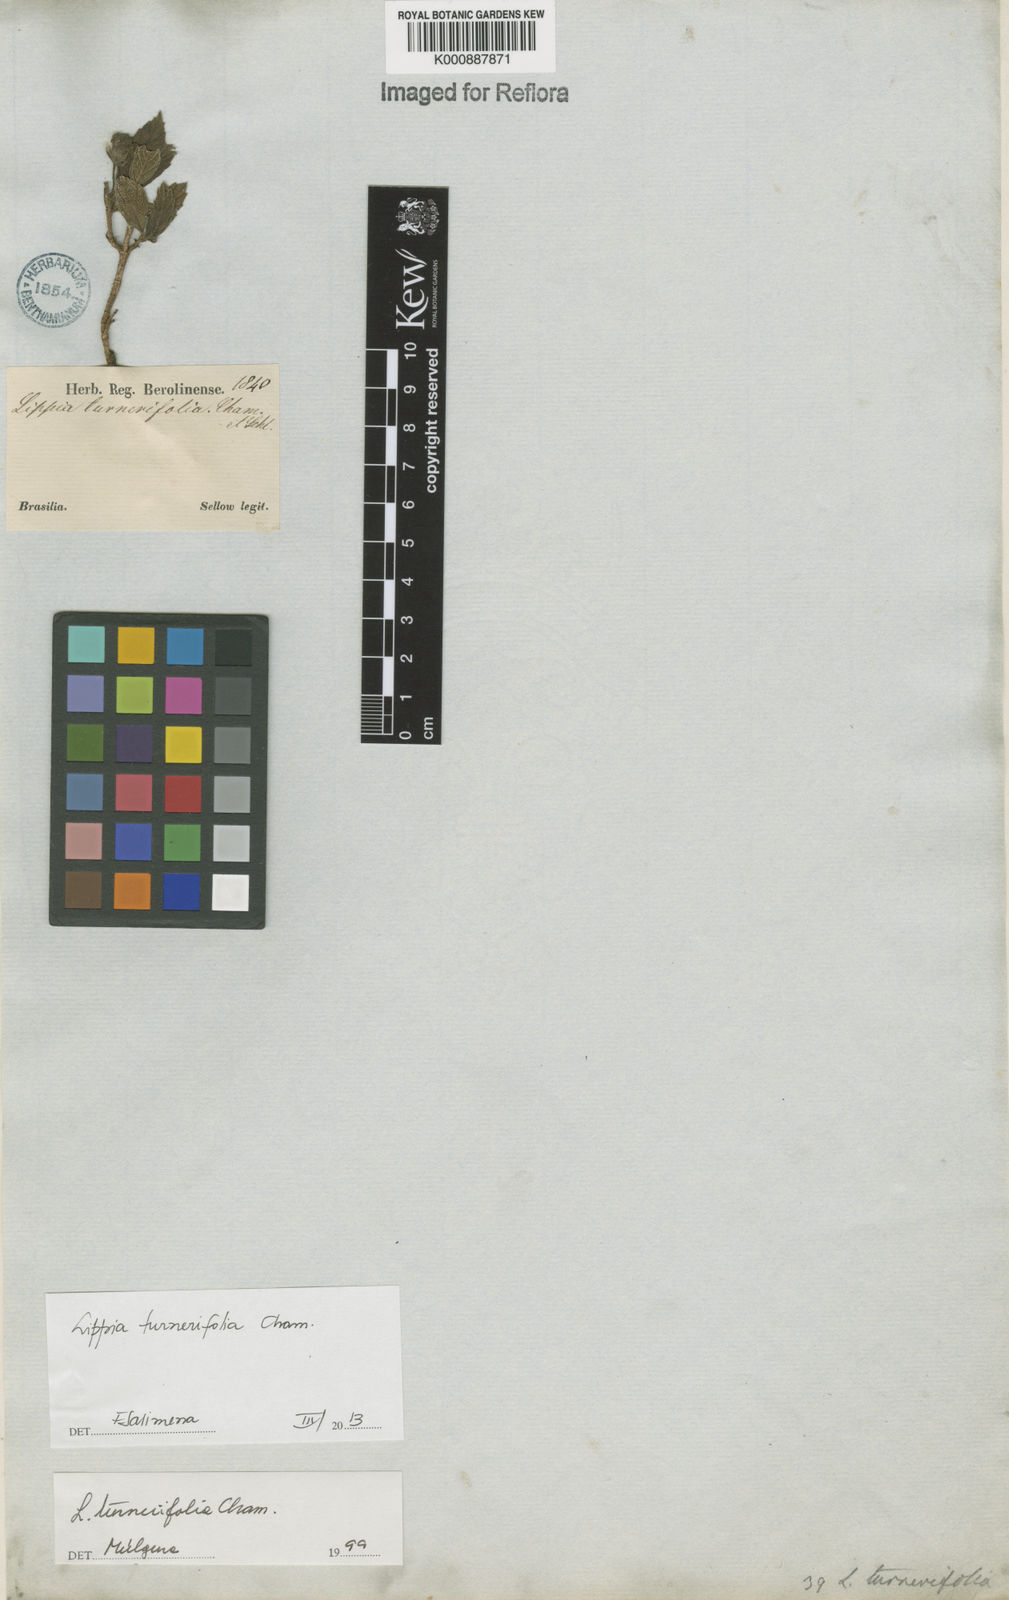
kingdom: Plantae
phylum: Tracheophyta
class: Magnoliopsida
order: Lamiales
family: Verbenaceae
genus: Lippia
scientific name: Lippia turnerifolia
